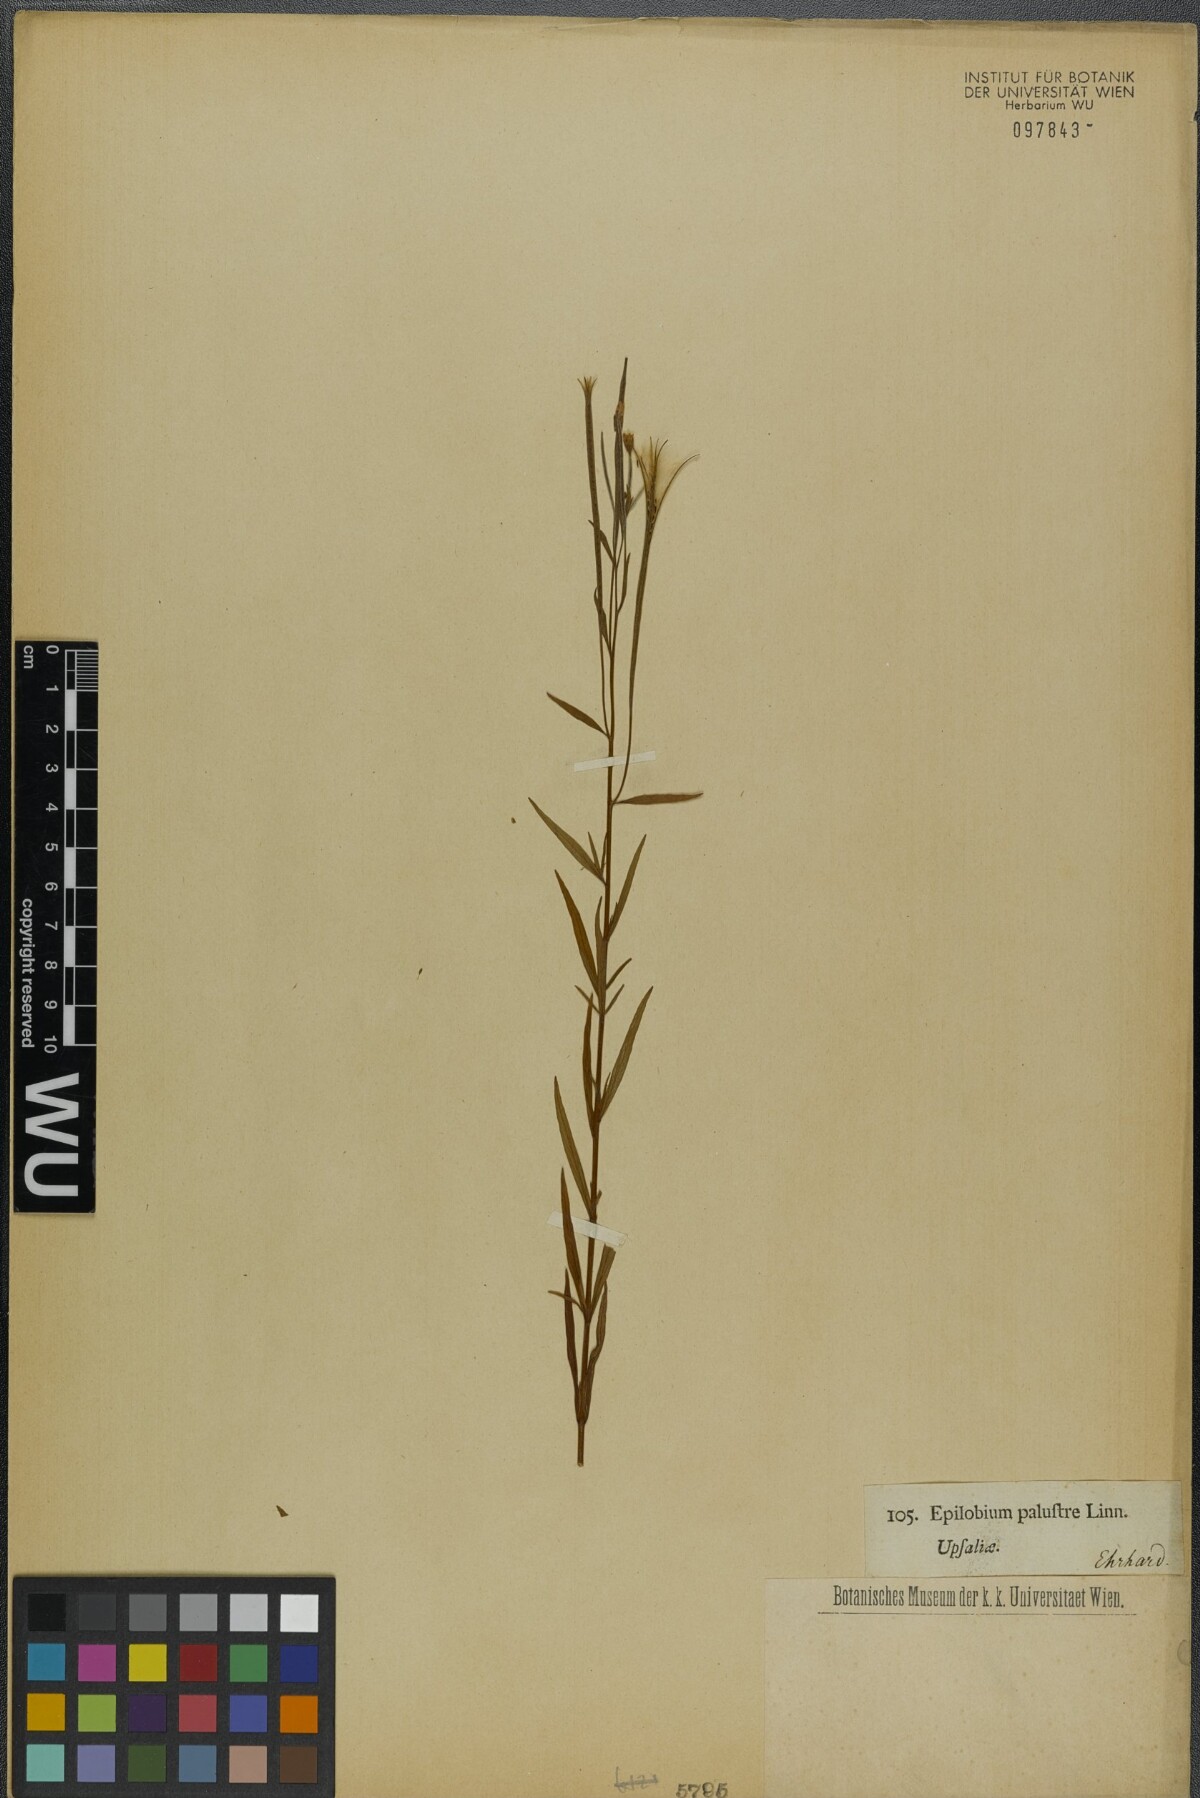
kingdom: Plantae
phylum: Tracheophyta
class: Magnoliopsida
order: Myrtales
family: Onagraceae
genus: Epilobium
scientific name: Epilobium palustre
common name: Marsh willowherb
